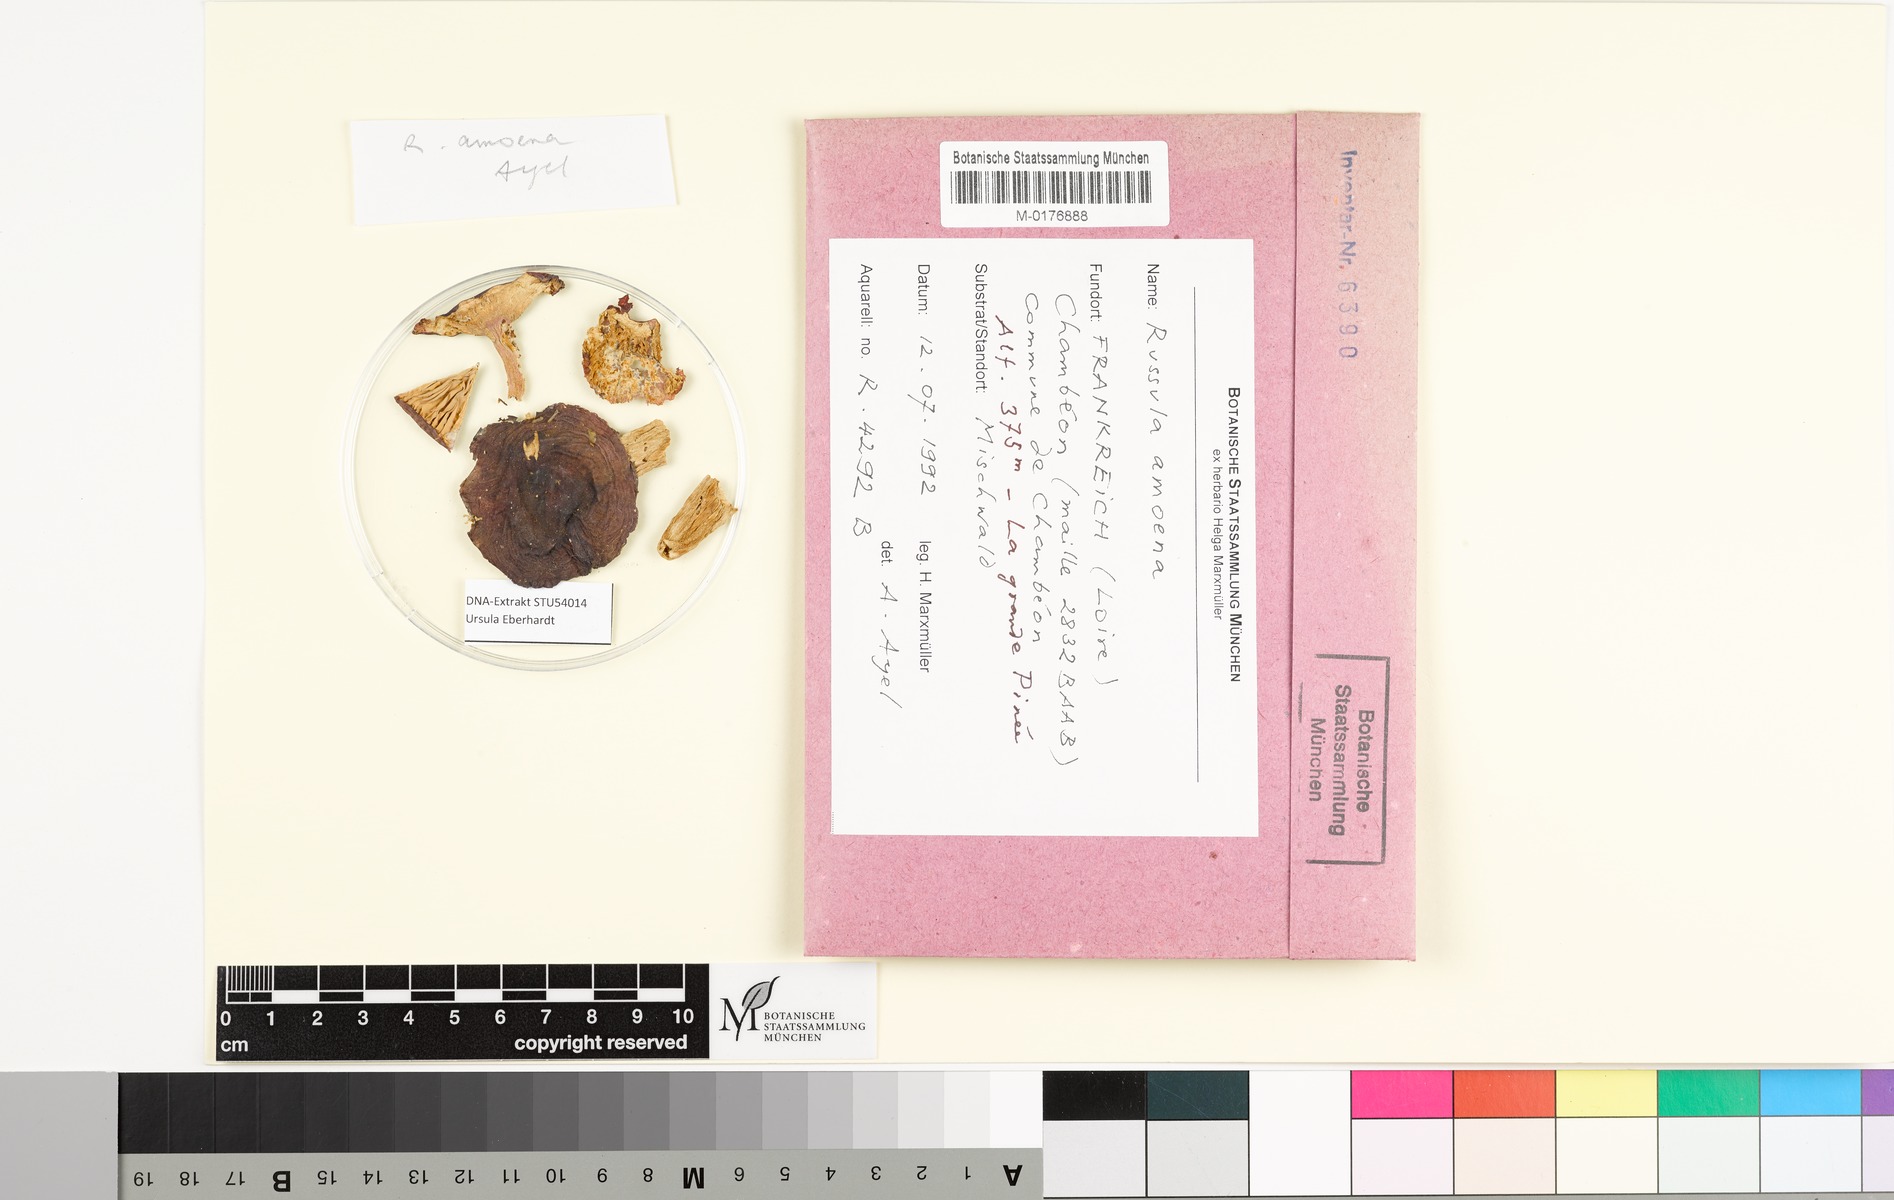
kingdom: Fungi
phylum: Basidiomycota
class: Agaricomycetes
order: Russulales
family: Russulaceae
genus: Russula
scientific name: Russula amoena
